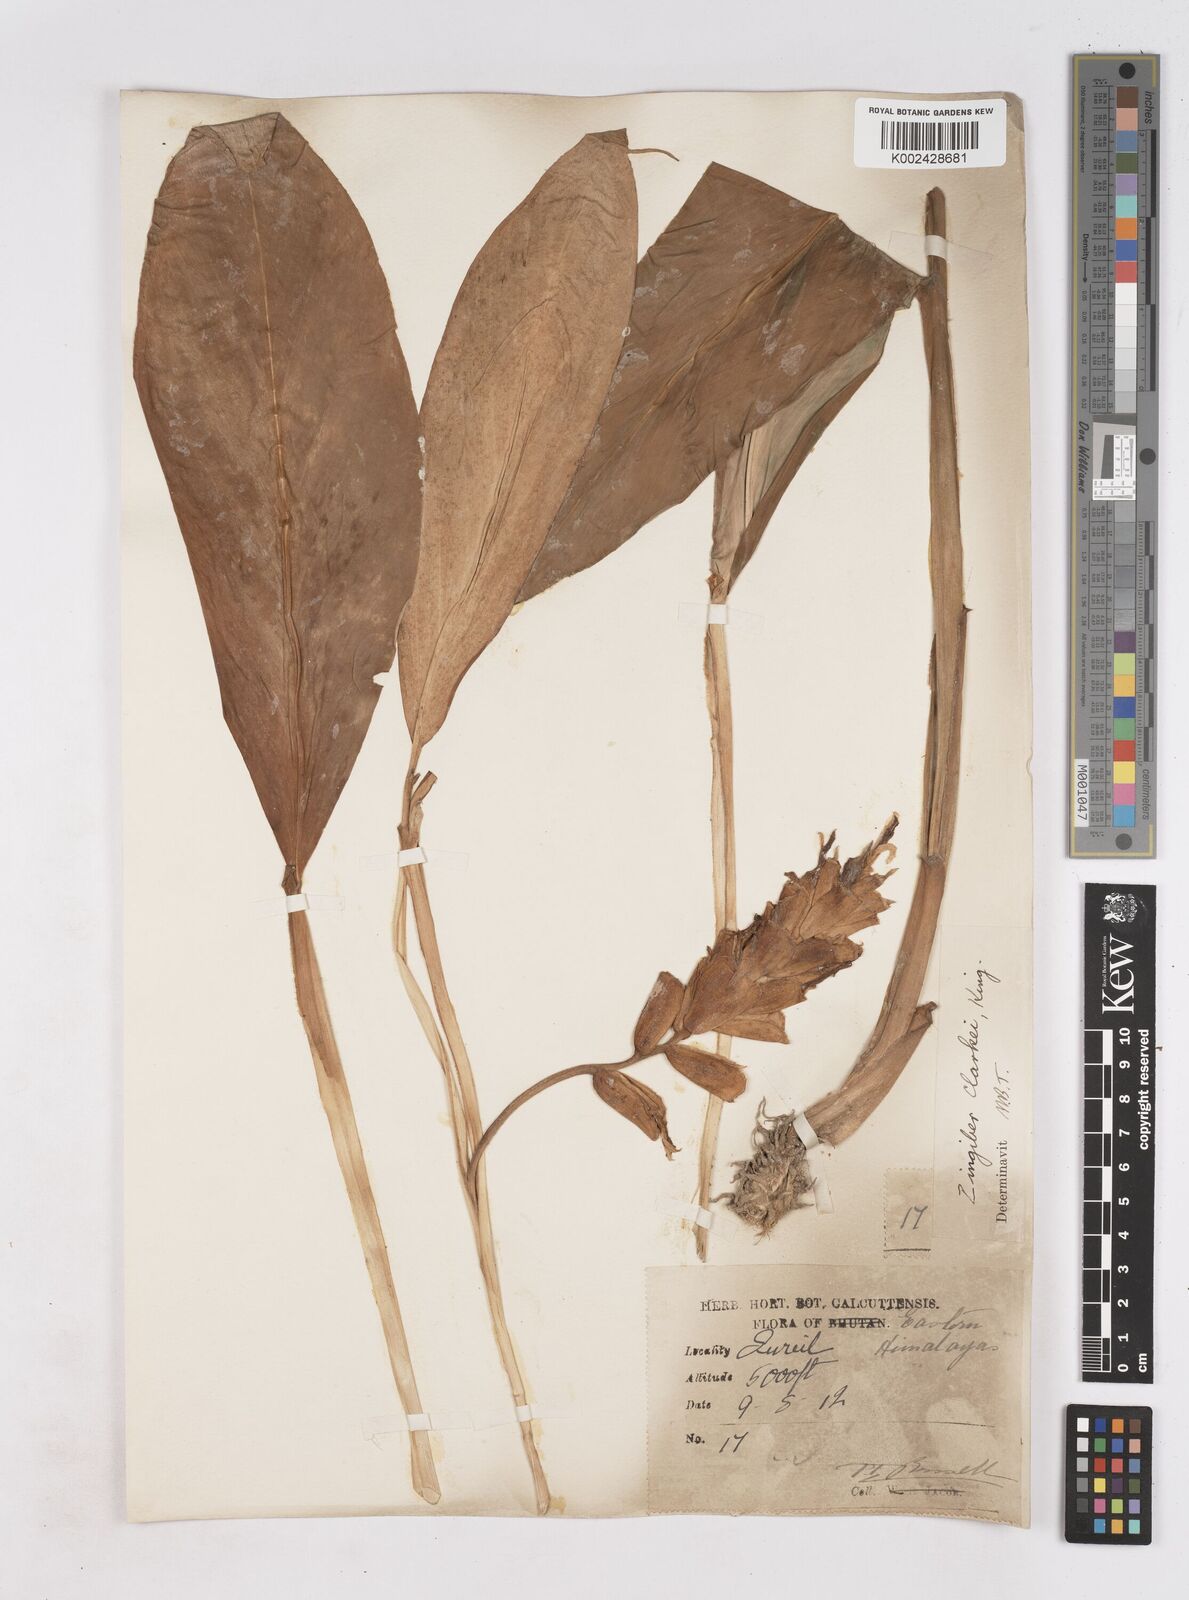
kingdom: Plantae
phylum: Tracheophyta
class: Liliopsida
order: Zingiberales
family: Zingiberaceae
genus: Zingiber
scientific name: Zingiber clarkei
